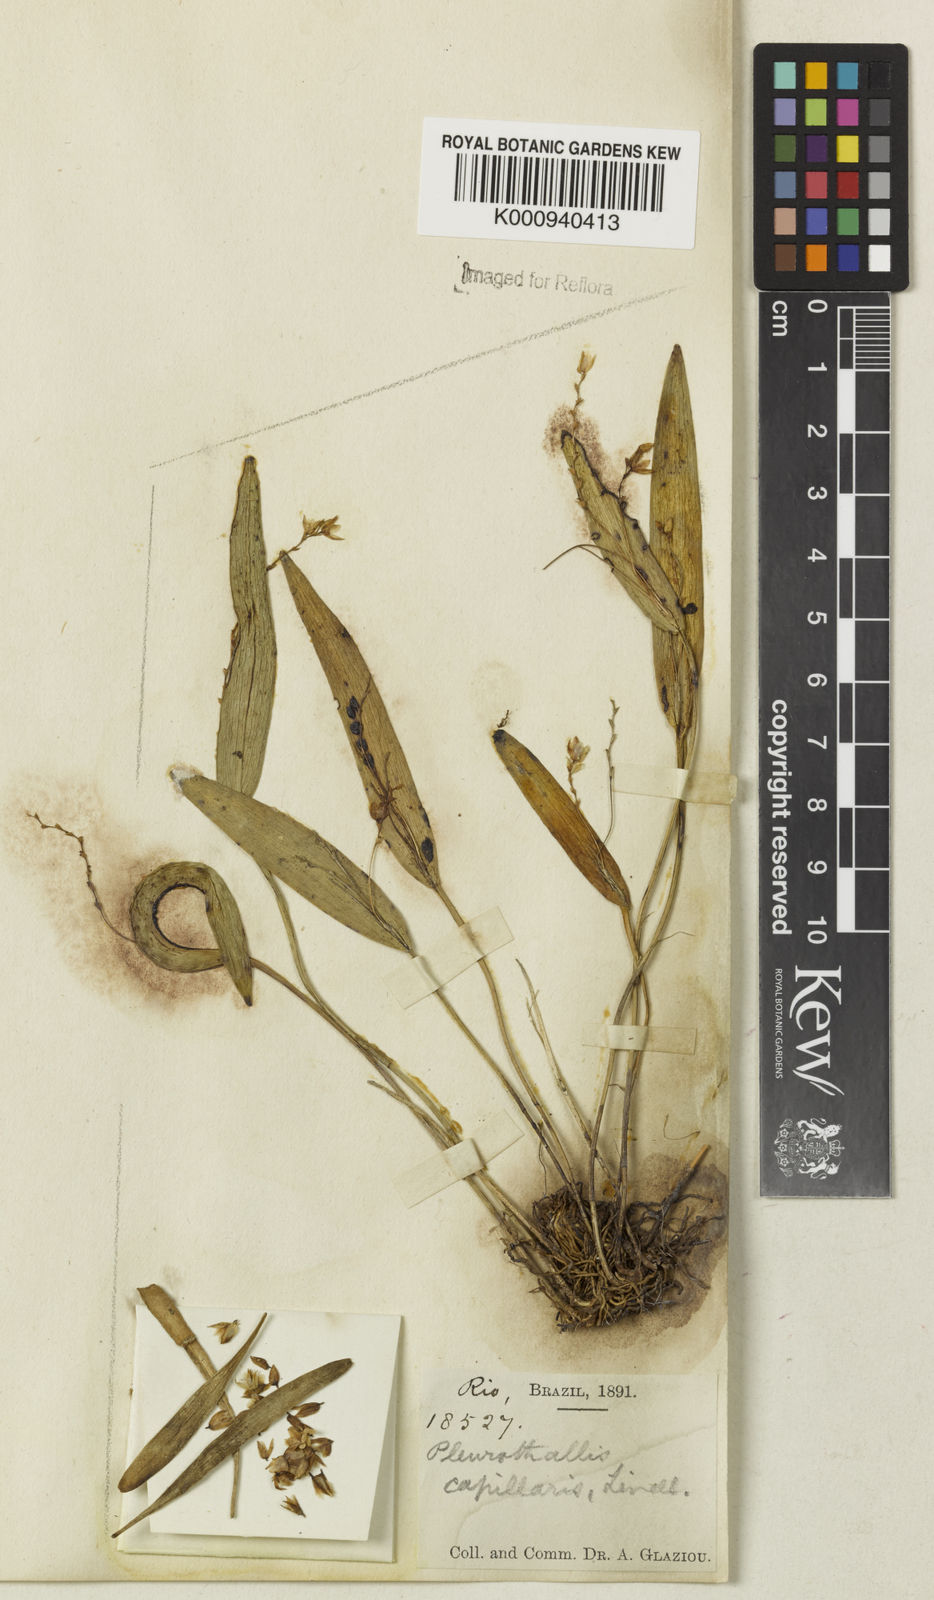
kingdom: Plantae
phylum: Tracheophyta
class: Liliopsida
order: Asparagales
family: Orchidaceae
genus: Acianthera
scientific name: Acianthera capillaris
